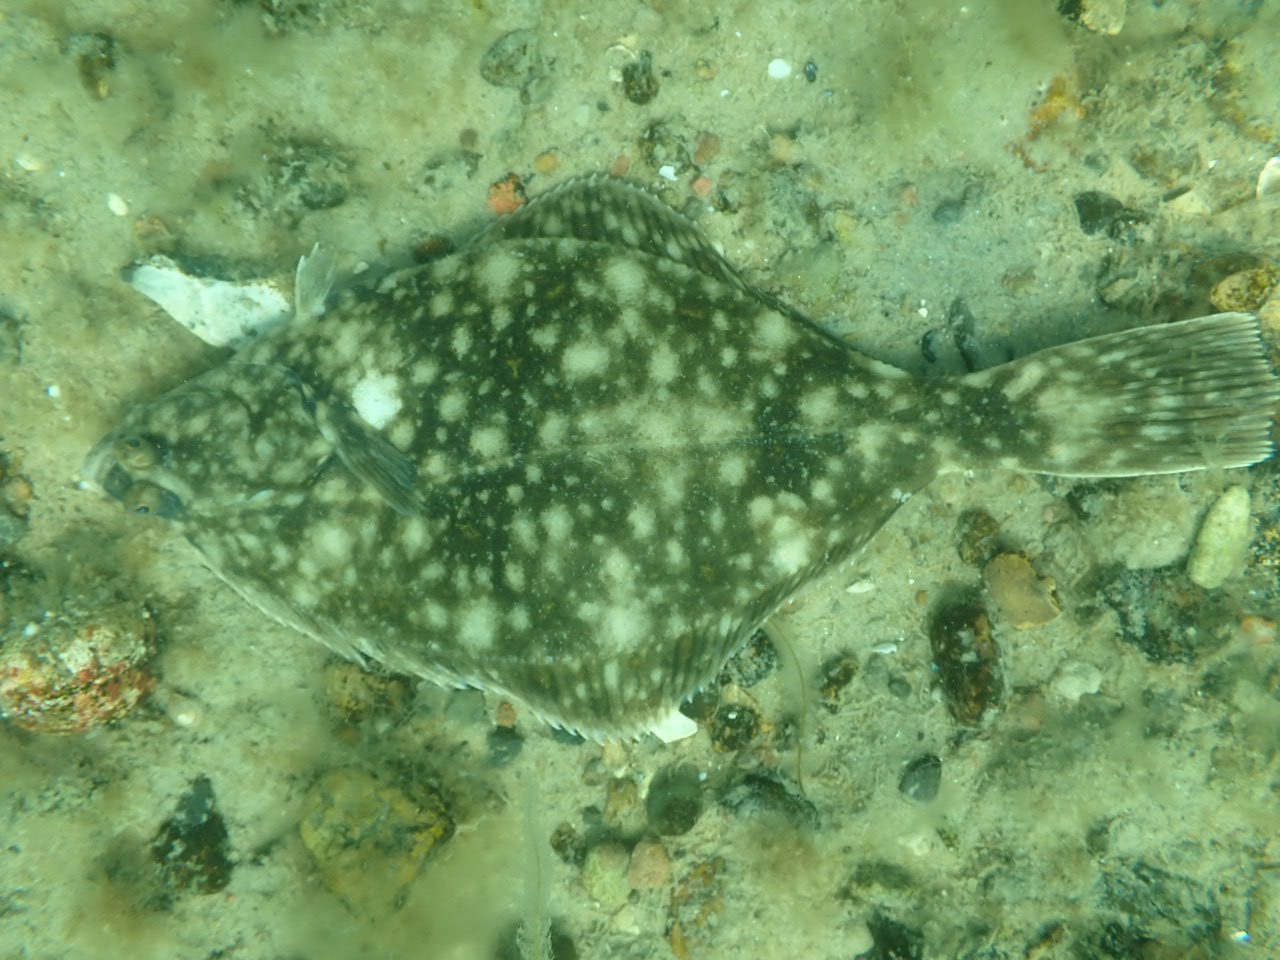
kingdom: Animalia
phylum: Chordata
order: Pleuronectiformes
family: Pleuronectidae
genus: Platichthys
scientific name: Platichthys flesus
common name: Skrubbe
